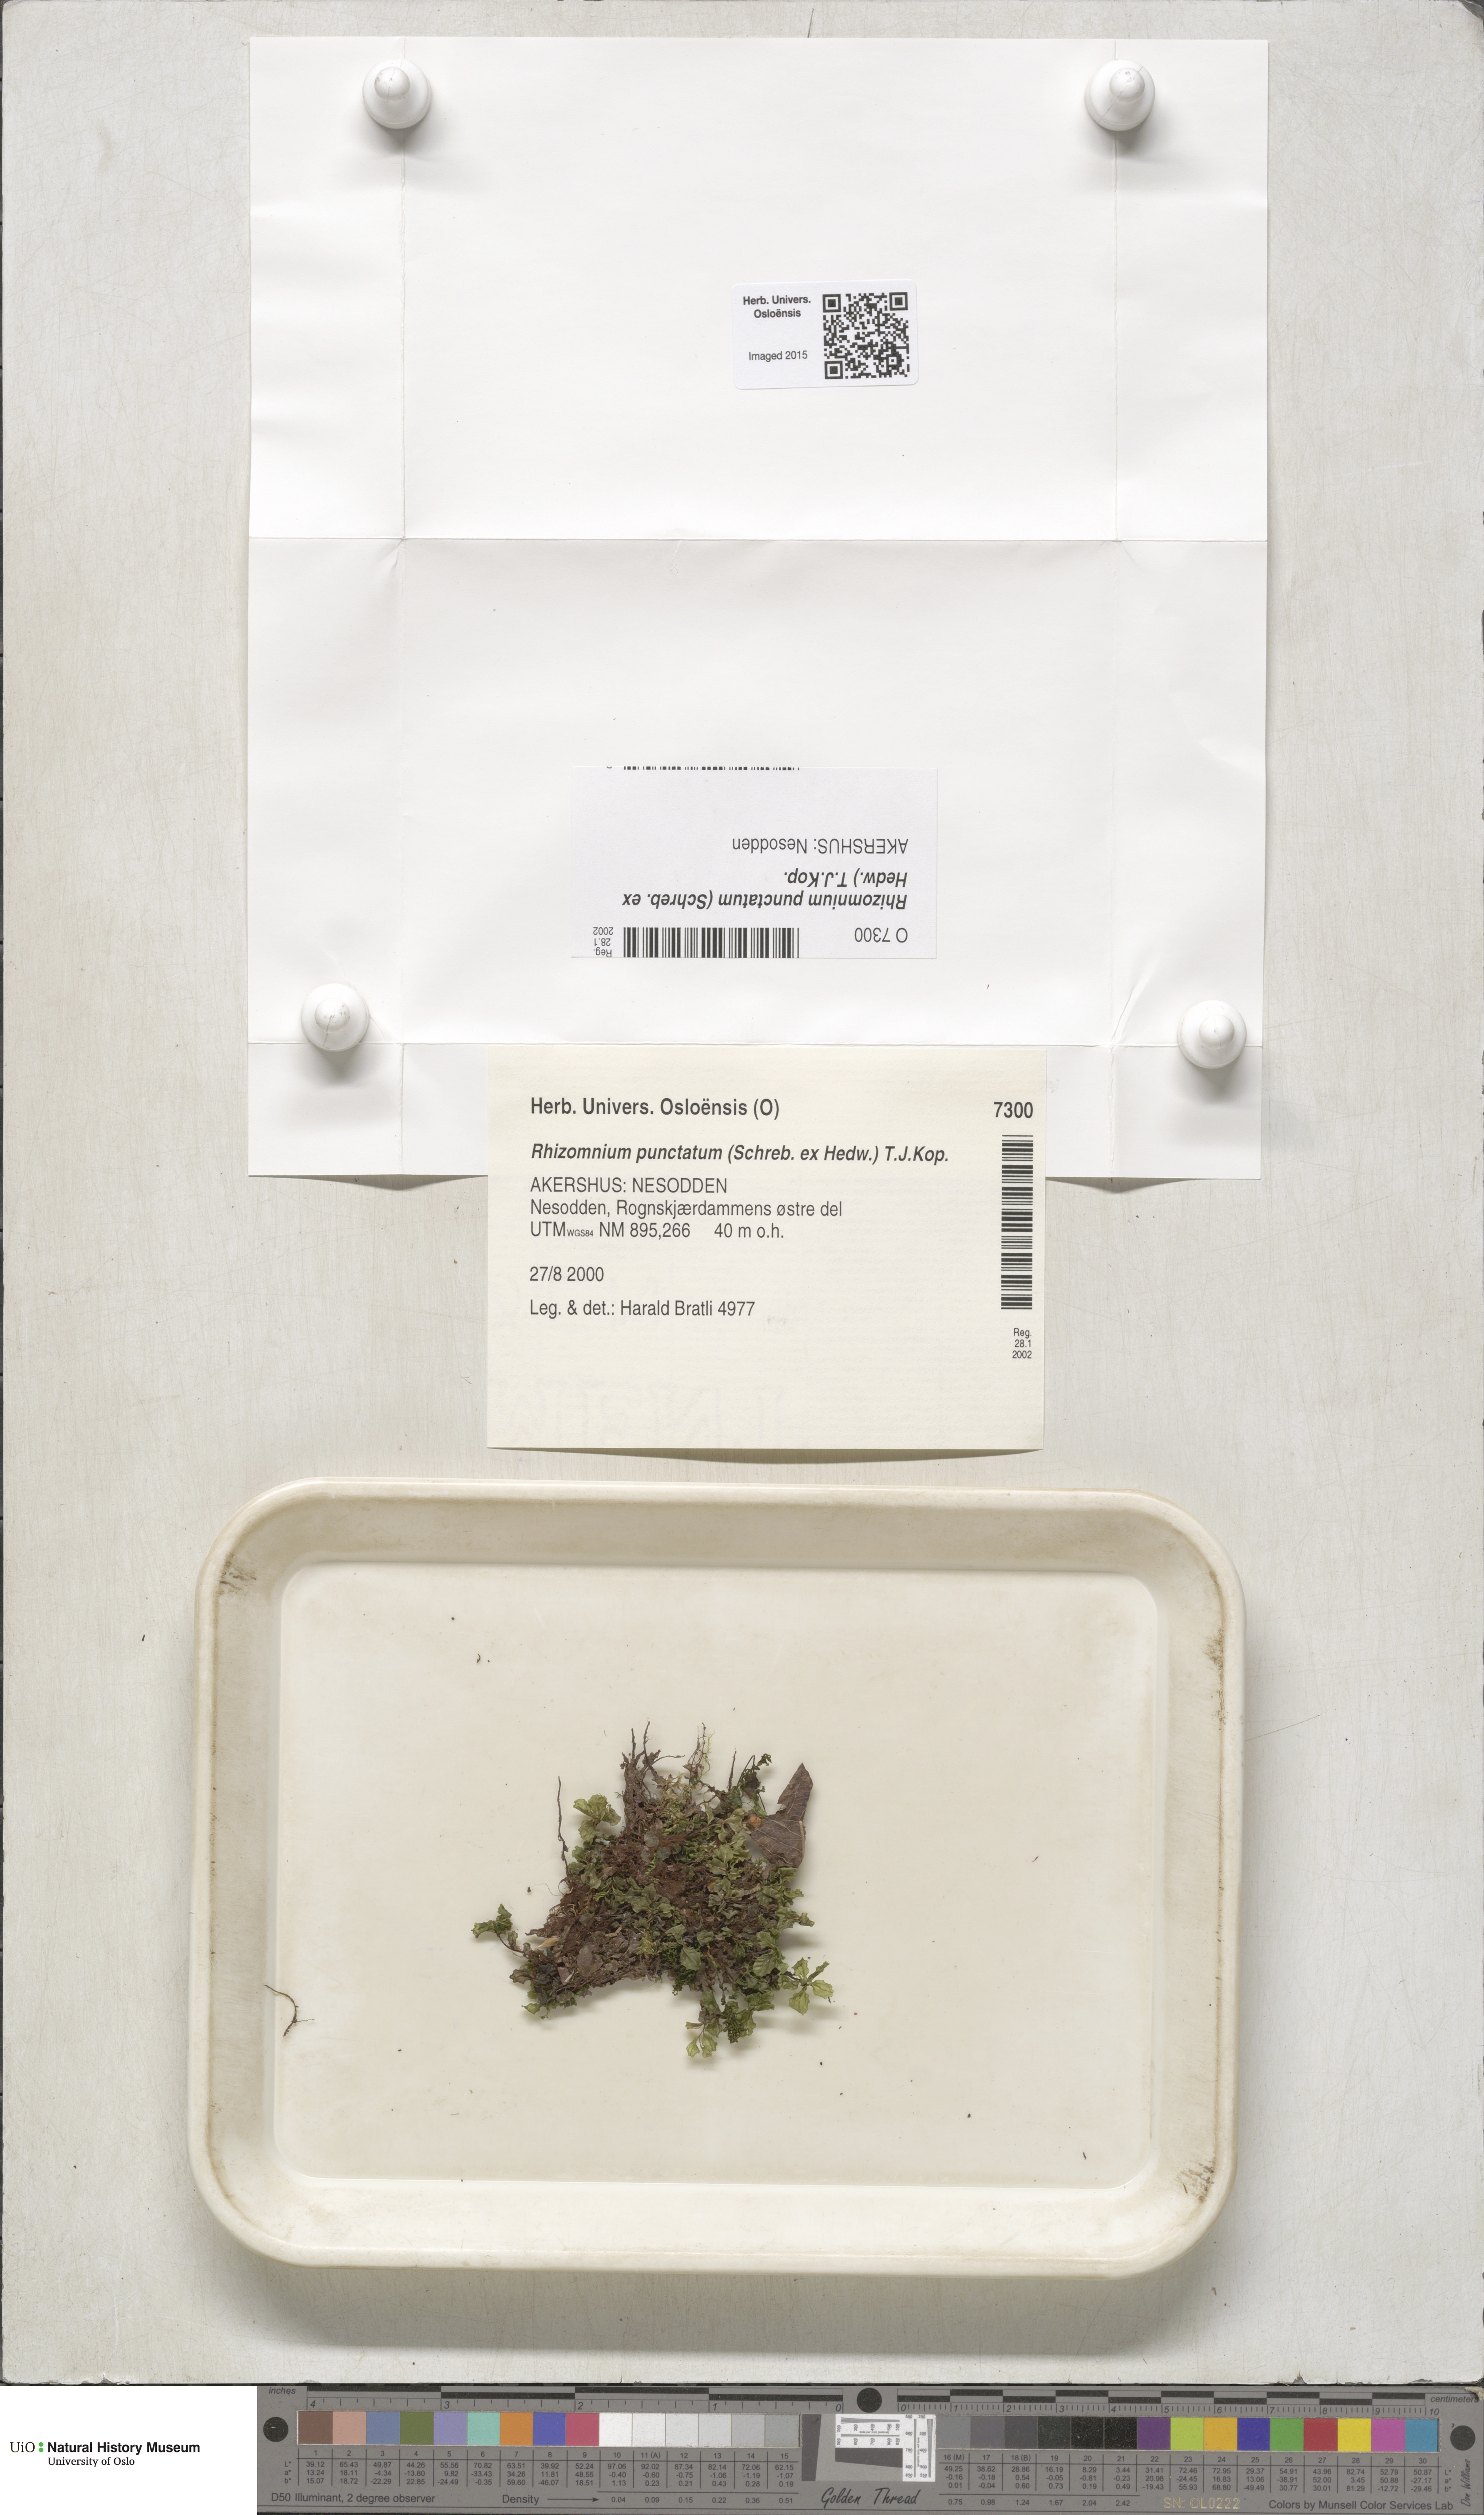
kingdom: Plantae
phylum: Bryophyta
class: Bryopsida
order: Bryales
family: Mniaceae
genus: Rhizomnium
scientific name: Rhizomnium punctatum
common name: Dotted leafy moss
